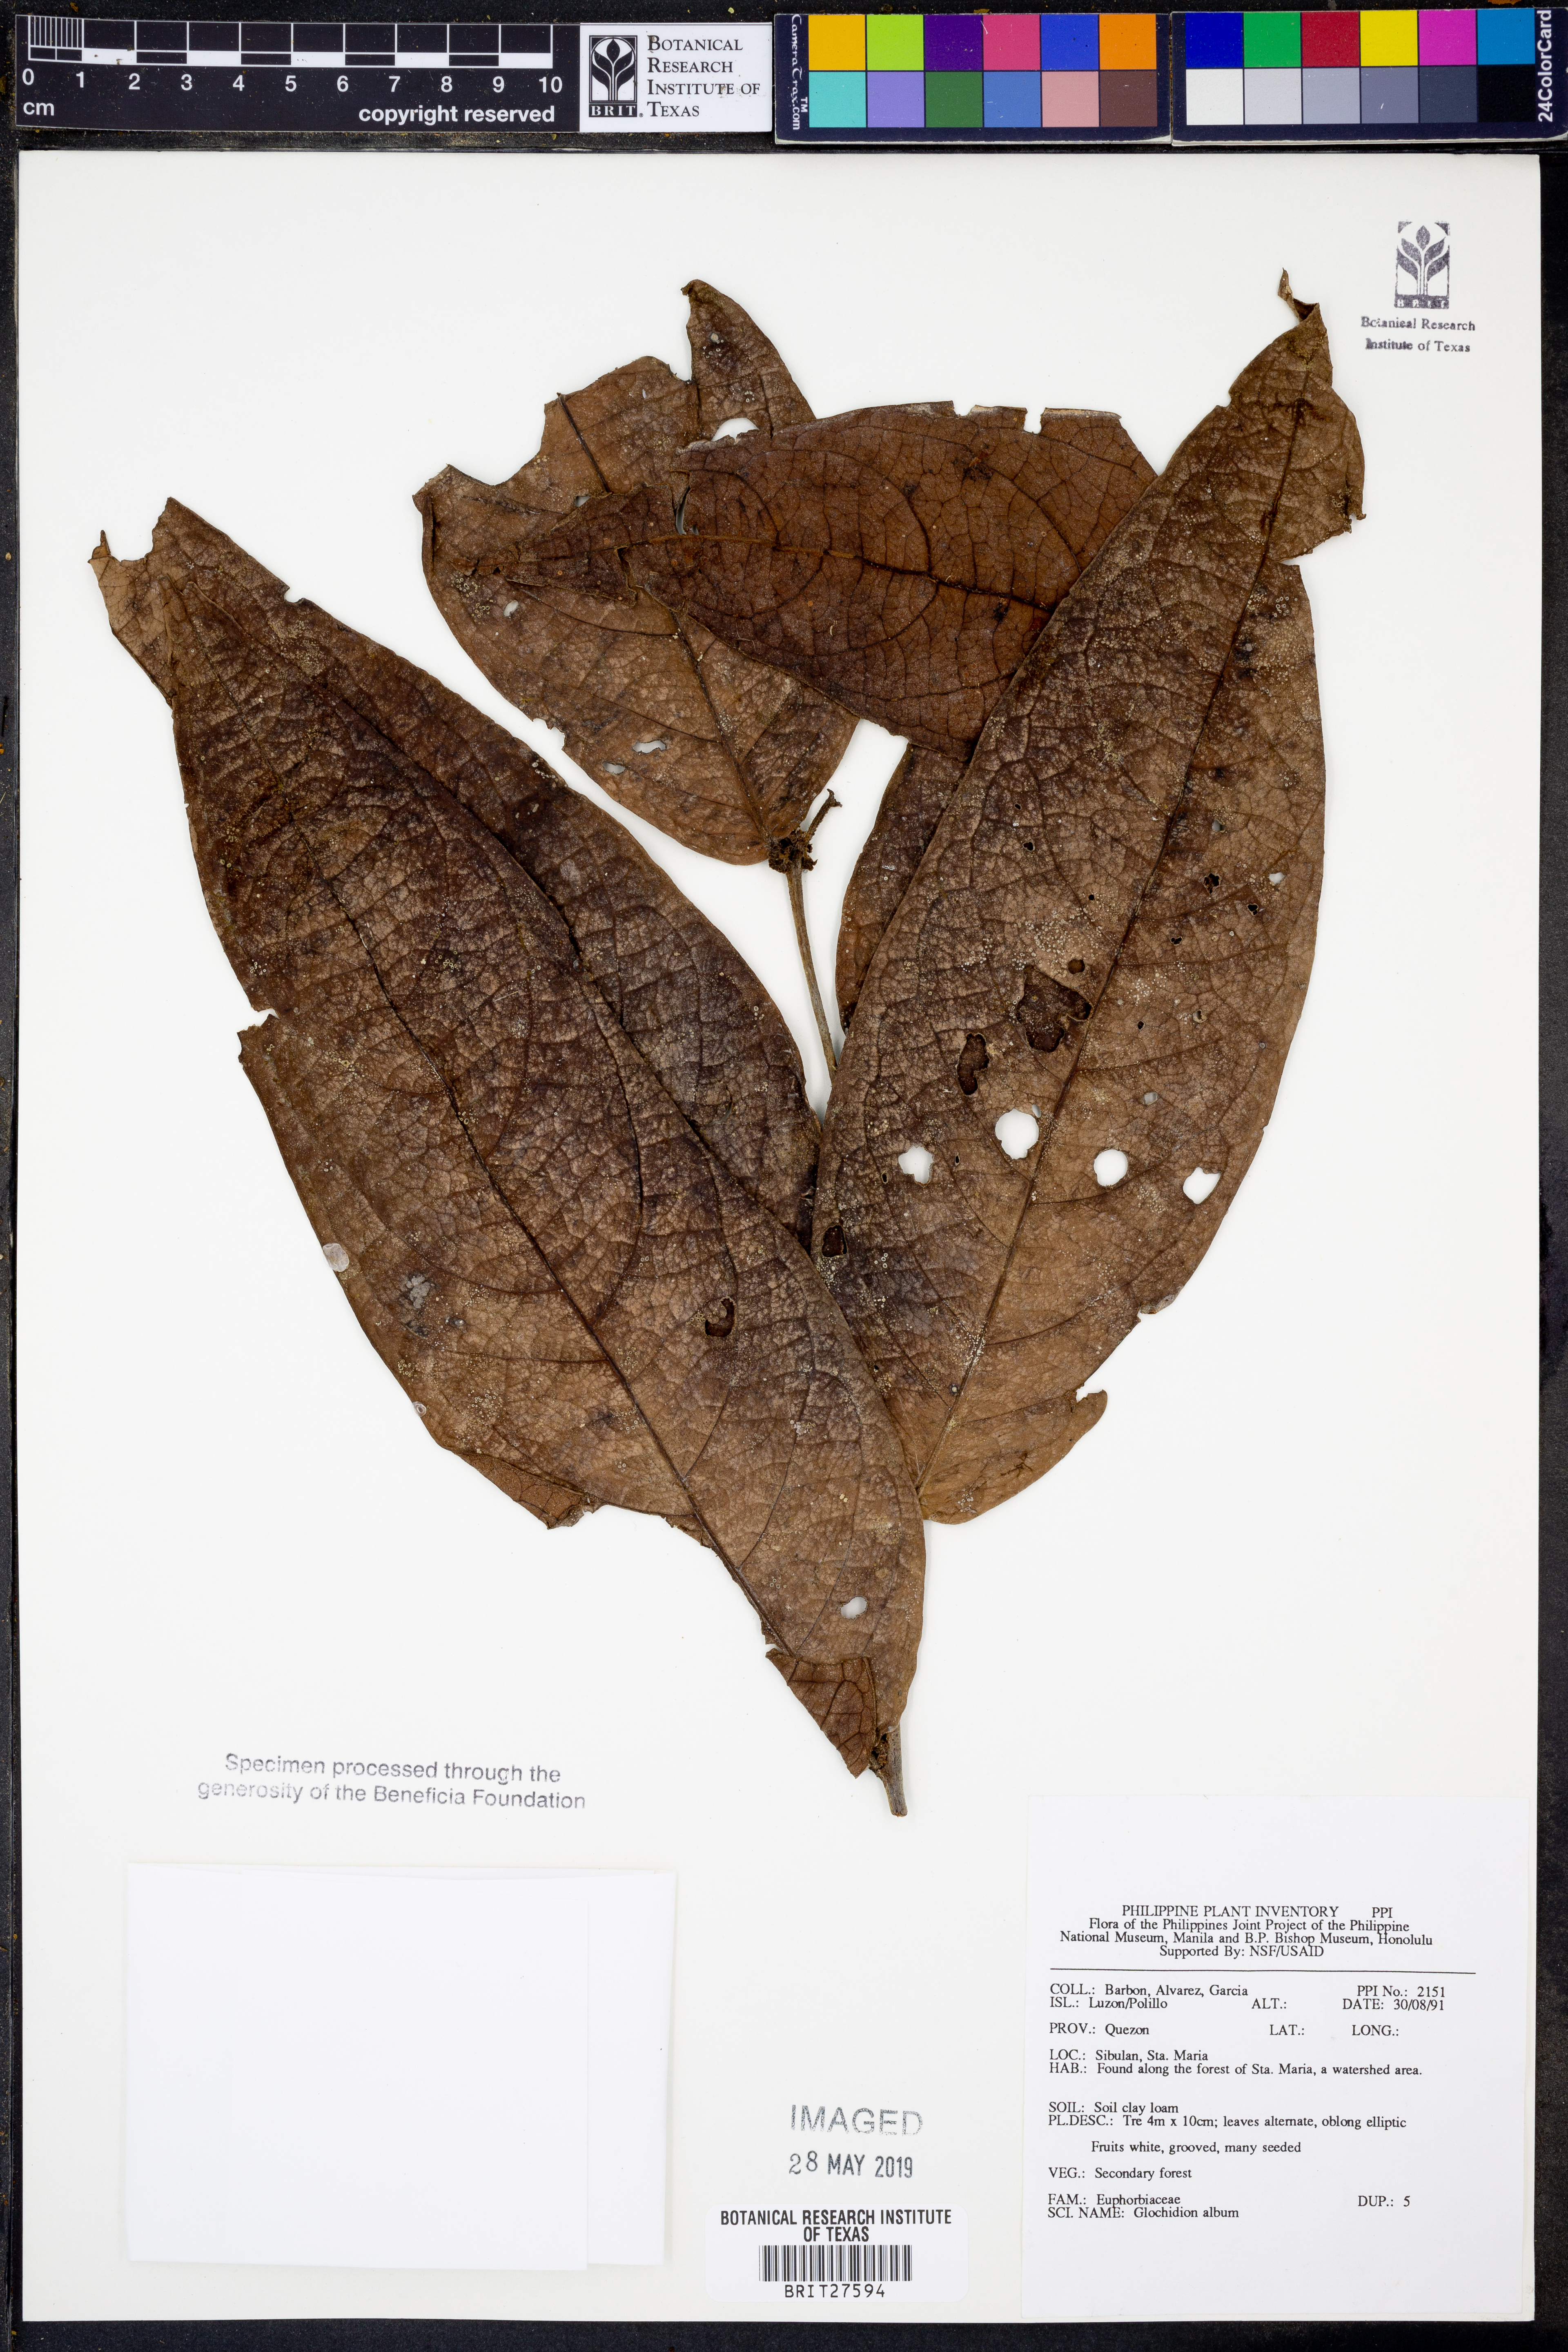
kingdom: Plantae
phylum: Tracheophyta
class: Magnoliopsida
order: Malpighiales
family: Phyllanthaceae
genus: Glochidion
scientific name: Glochidion album
